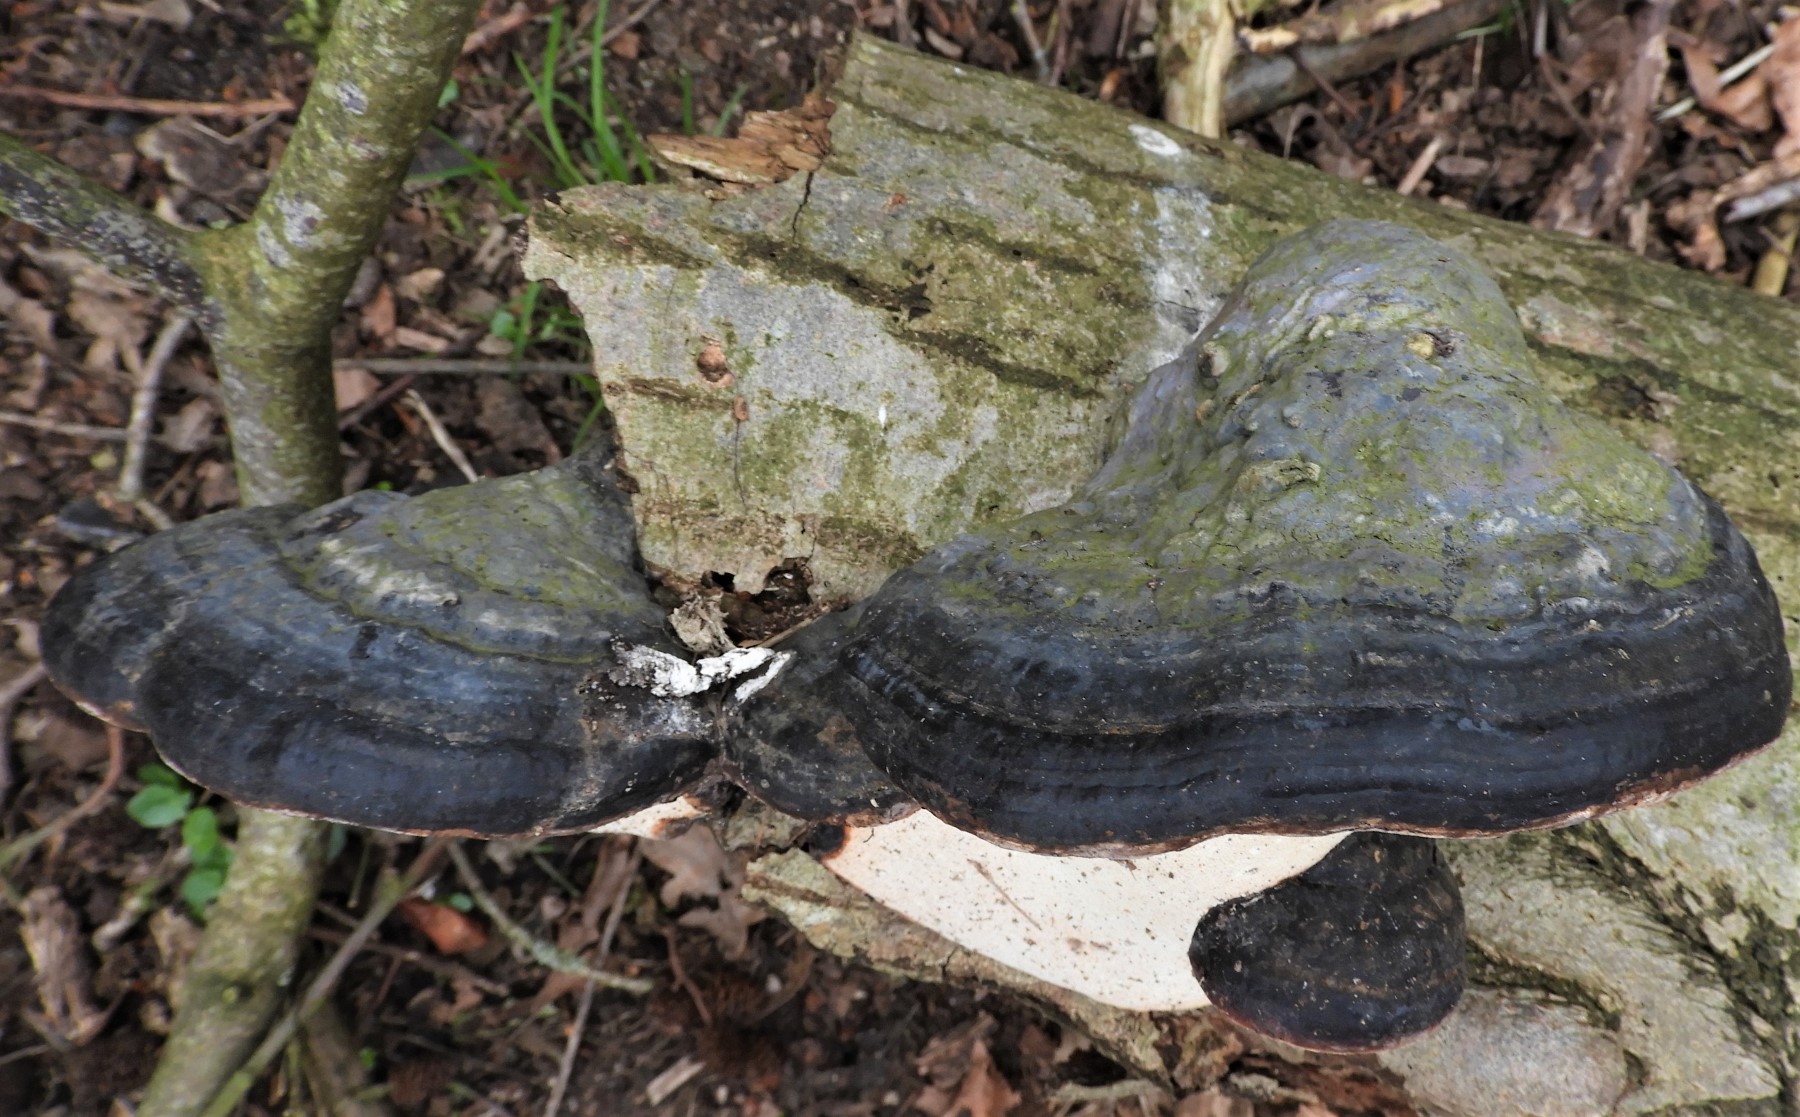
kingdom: Fungi
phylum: Basidiomycota
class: Agaricomycetes
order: Polyporales
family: Fomitopsidaceae
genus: Fomitopsis
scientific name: Fomitopsis pinicola
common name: randbæltet hovporesvamp
